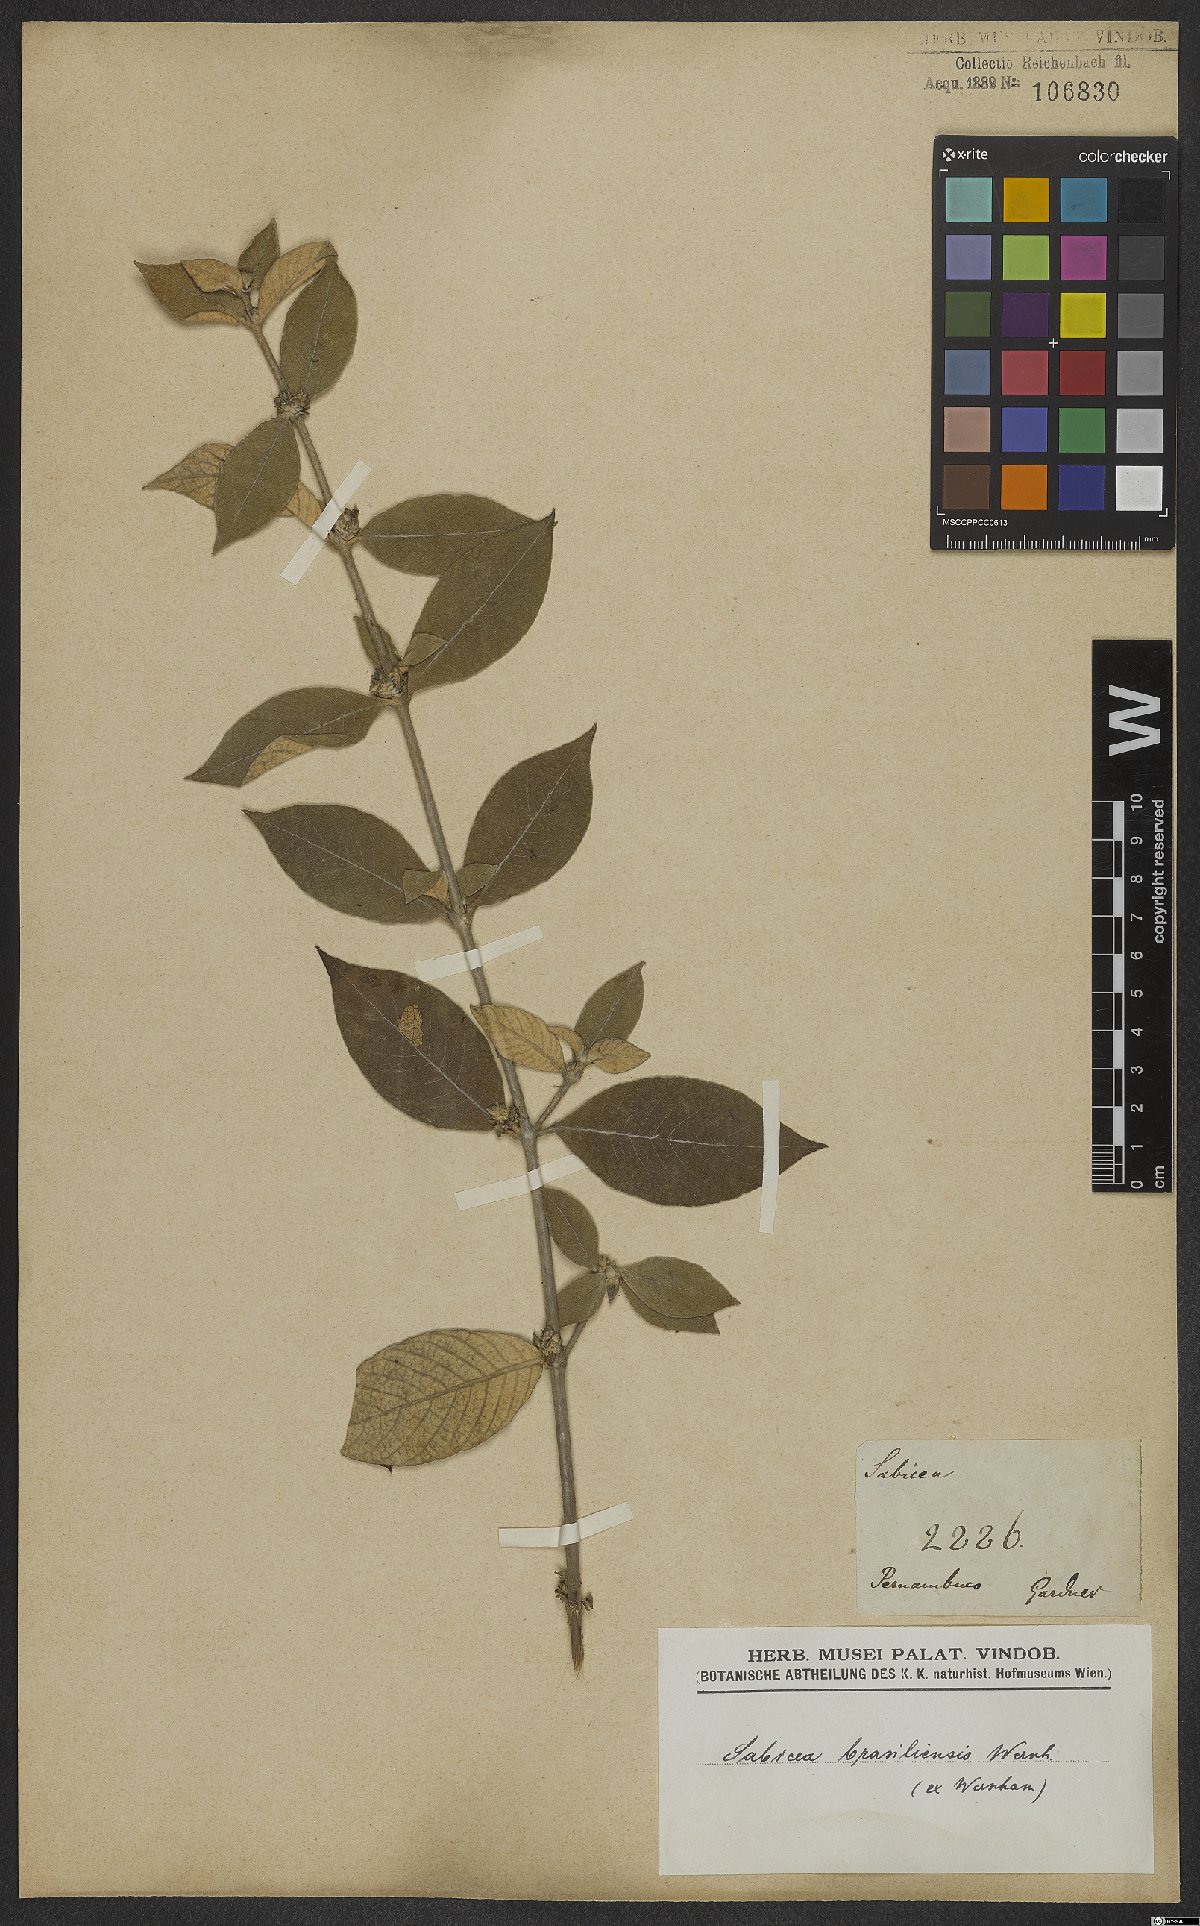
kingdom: Plantae
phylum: Tracheophyta
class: Magnoliopsida
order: Gentianales
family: Rubiaceae
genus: Sabicea
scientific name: Sabicea brasiliensis
